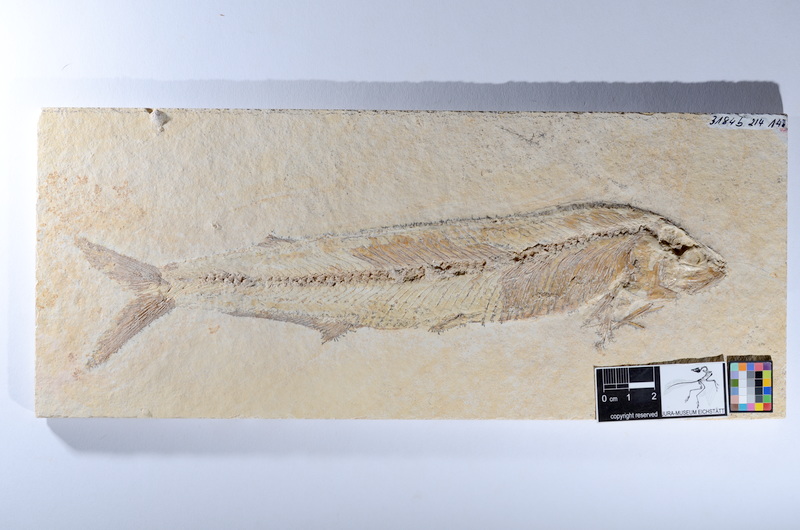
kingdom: Animalia
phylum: Chordata
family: Allothrissopidae
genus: Allothrissops
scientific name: Allothrissops
